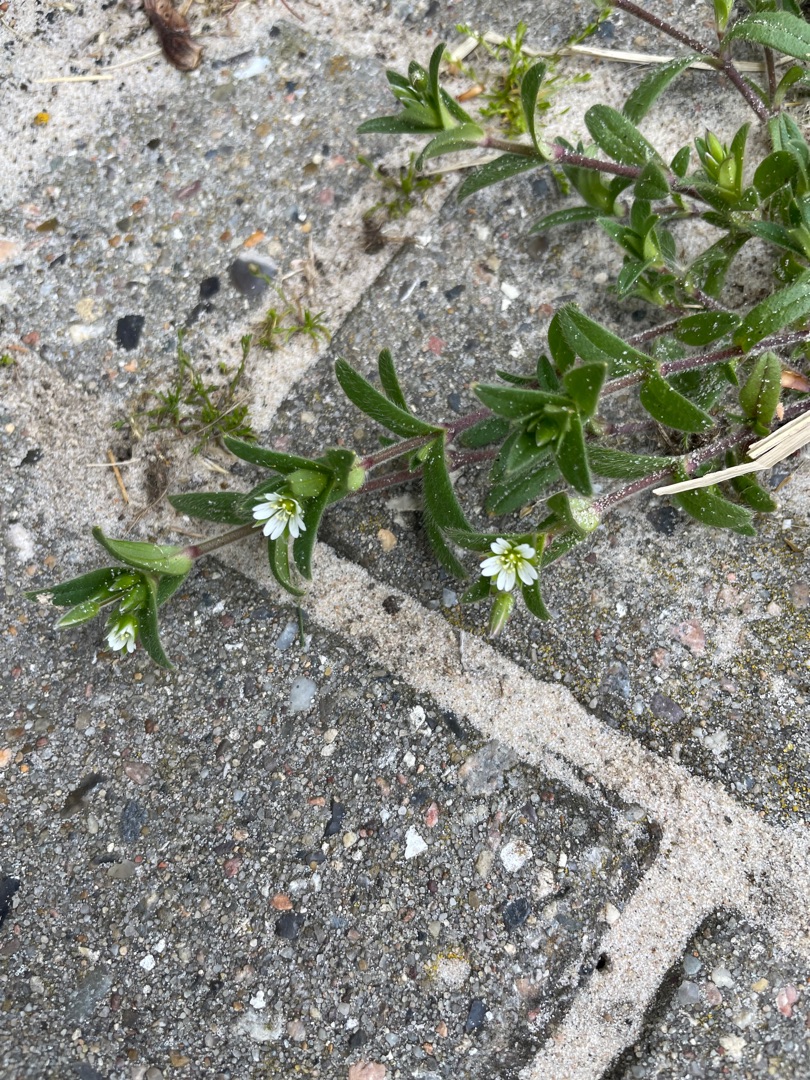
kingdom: Plantae
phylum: Tracheophyta
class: Magnoliopsida
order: Caryophyllales
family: Caryophyllaceae
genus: Cerastium
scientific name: Cerastium fontanum
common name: Almindelig hønsetarm
